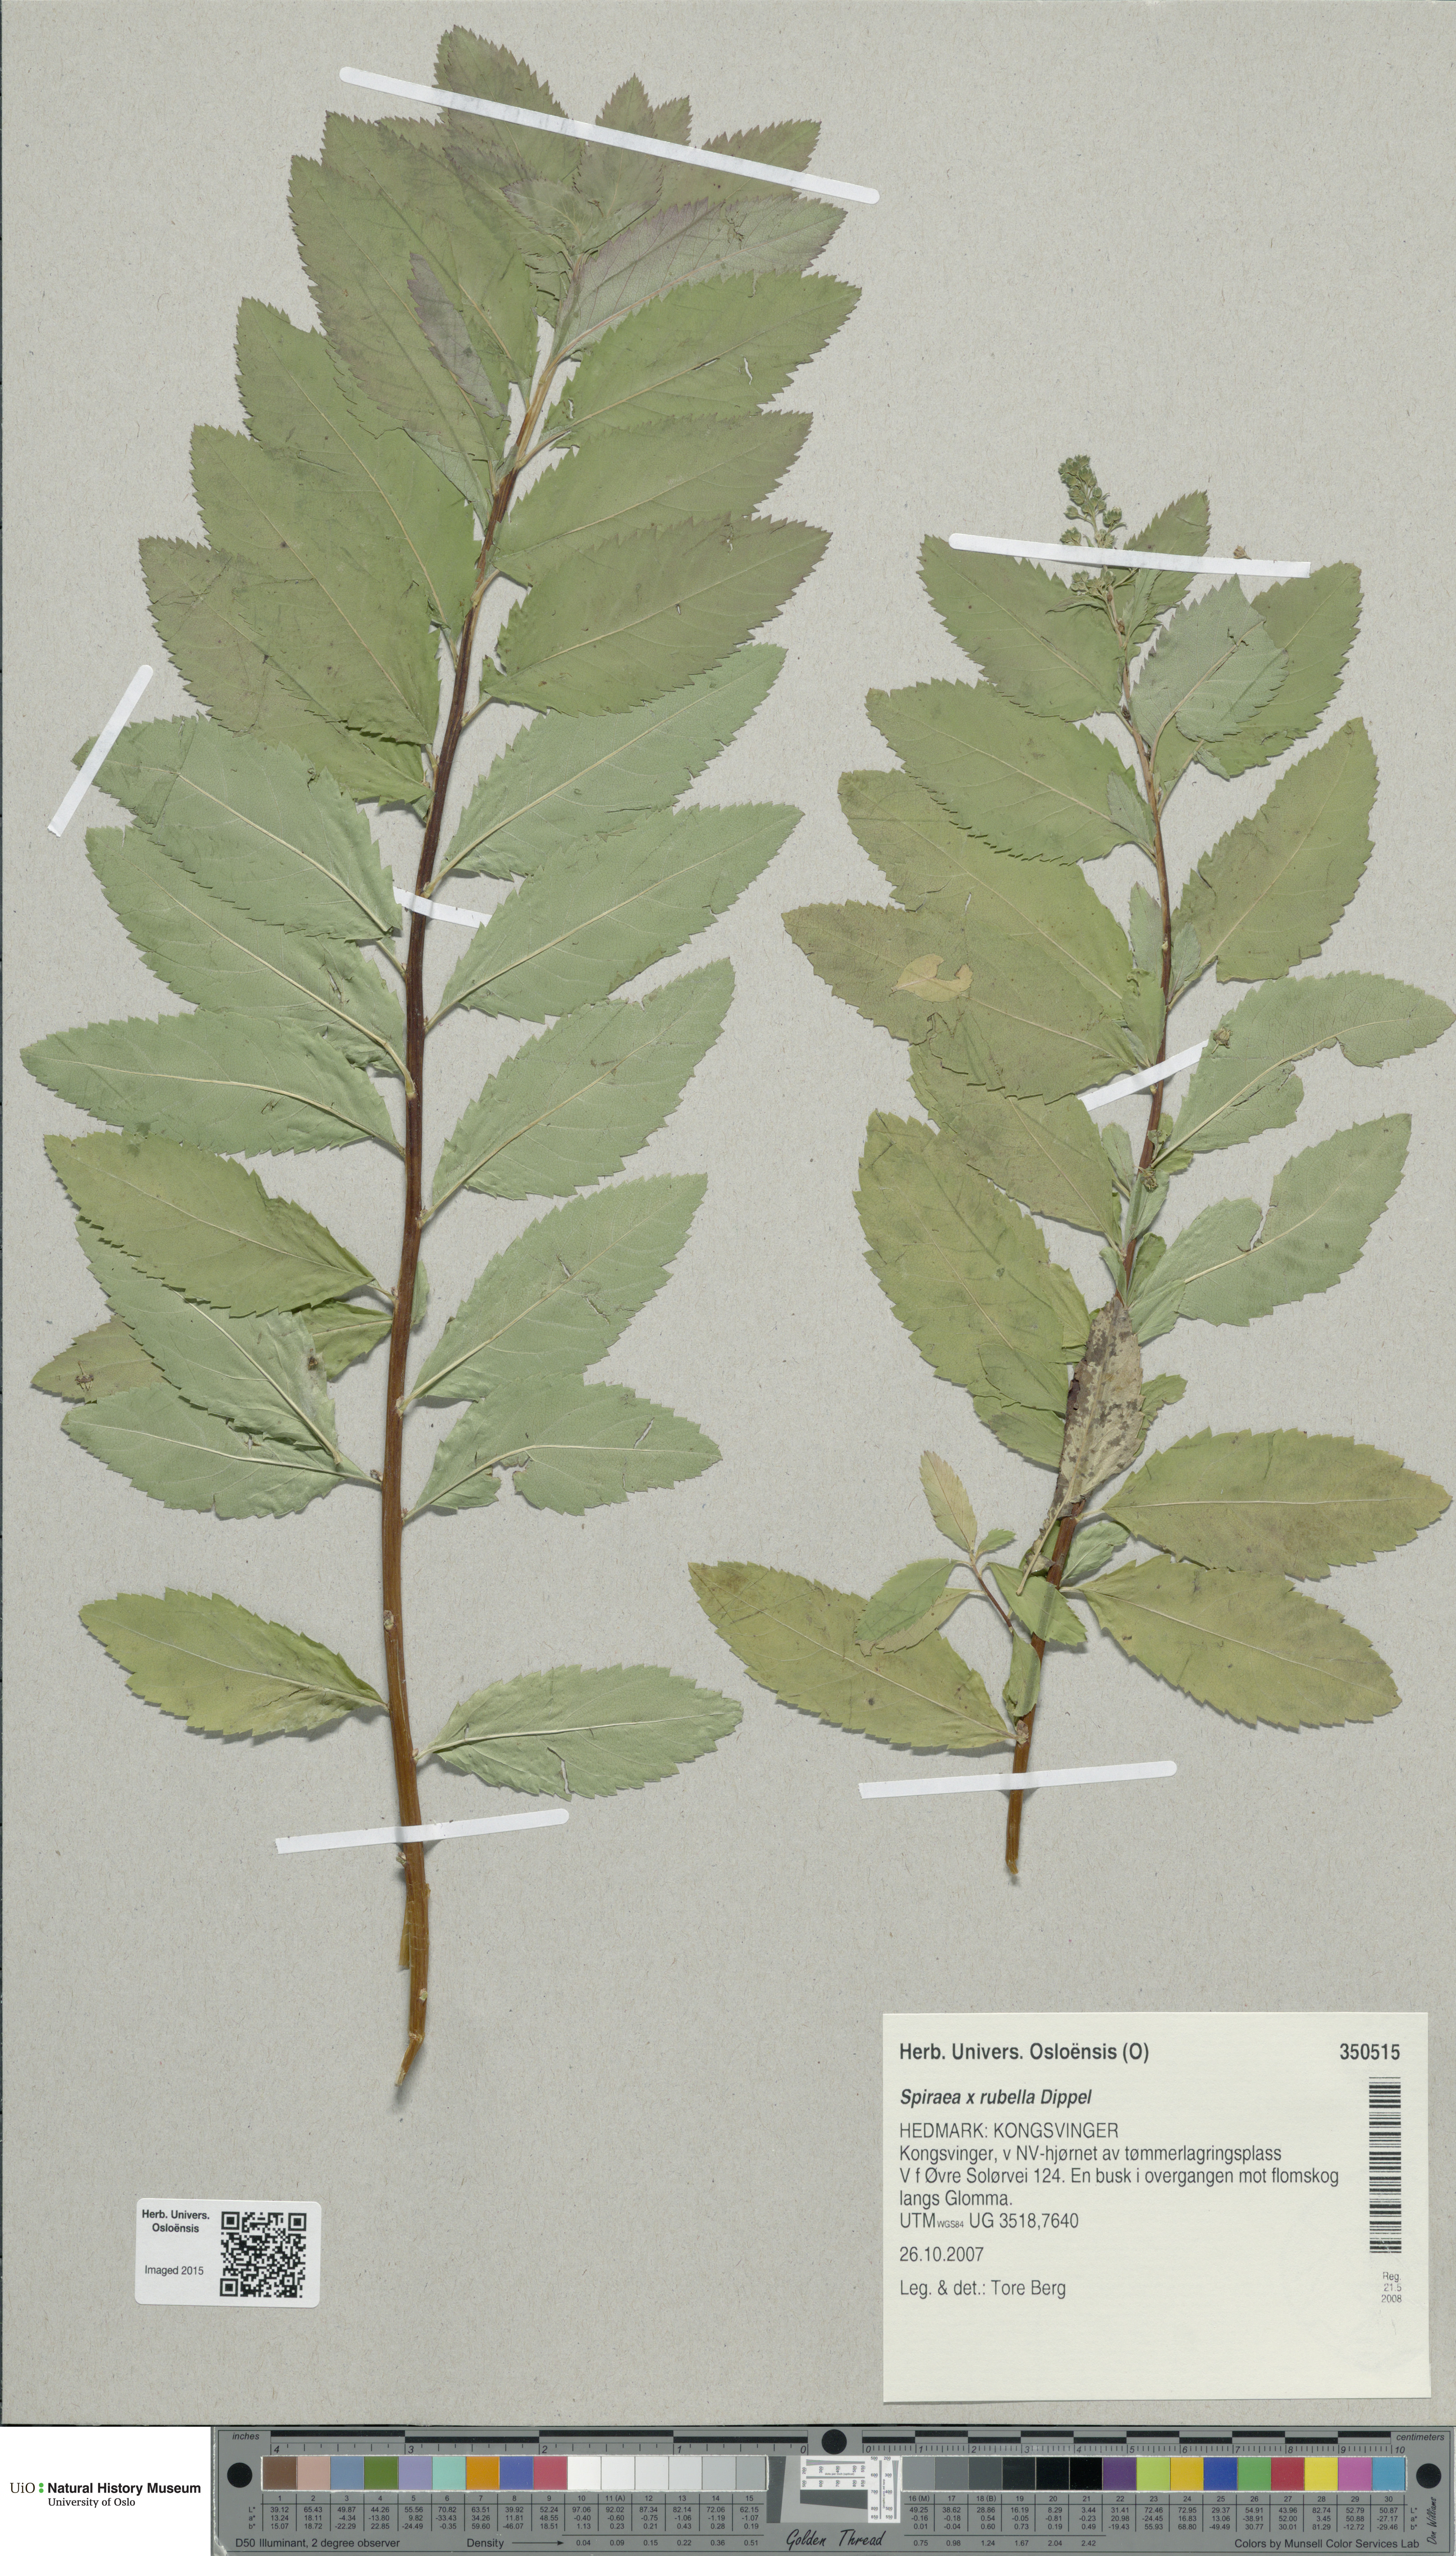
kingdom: Plantae
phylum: Tracheophyta
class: Magnoliopsida
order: Rosales
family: Rosaceae
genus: Spiraea
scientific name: Spiraea rosalba
